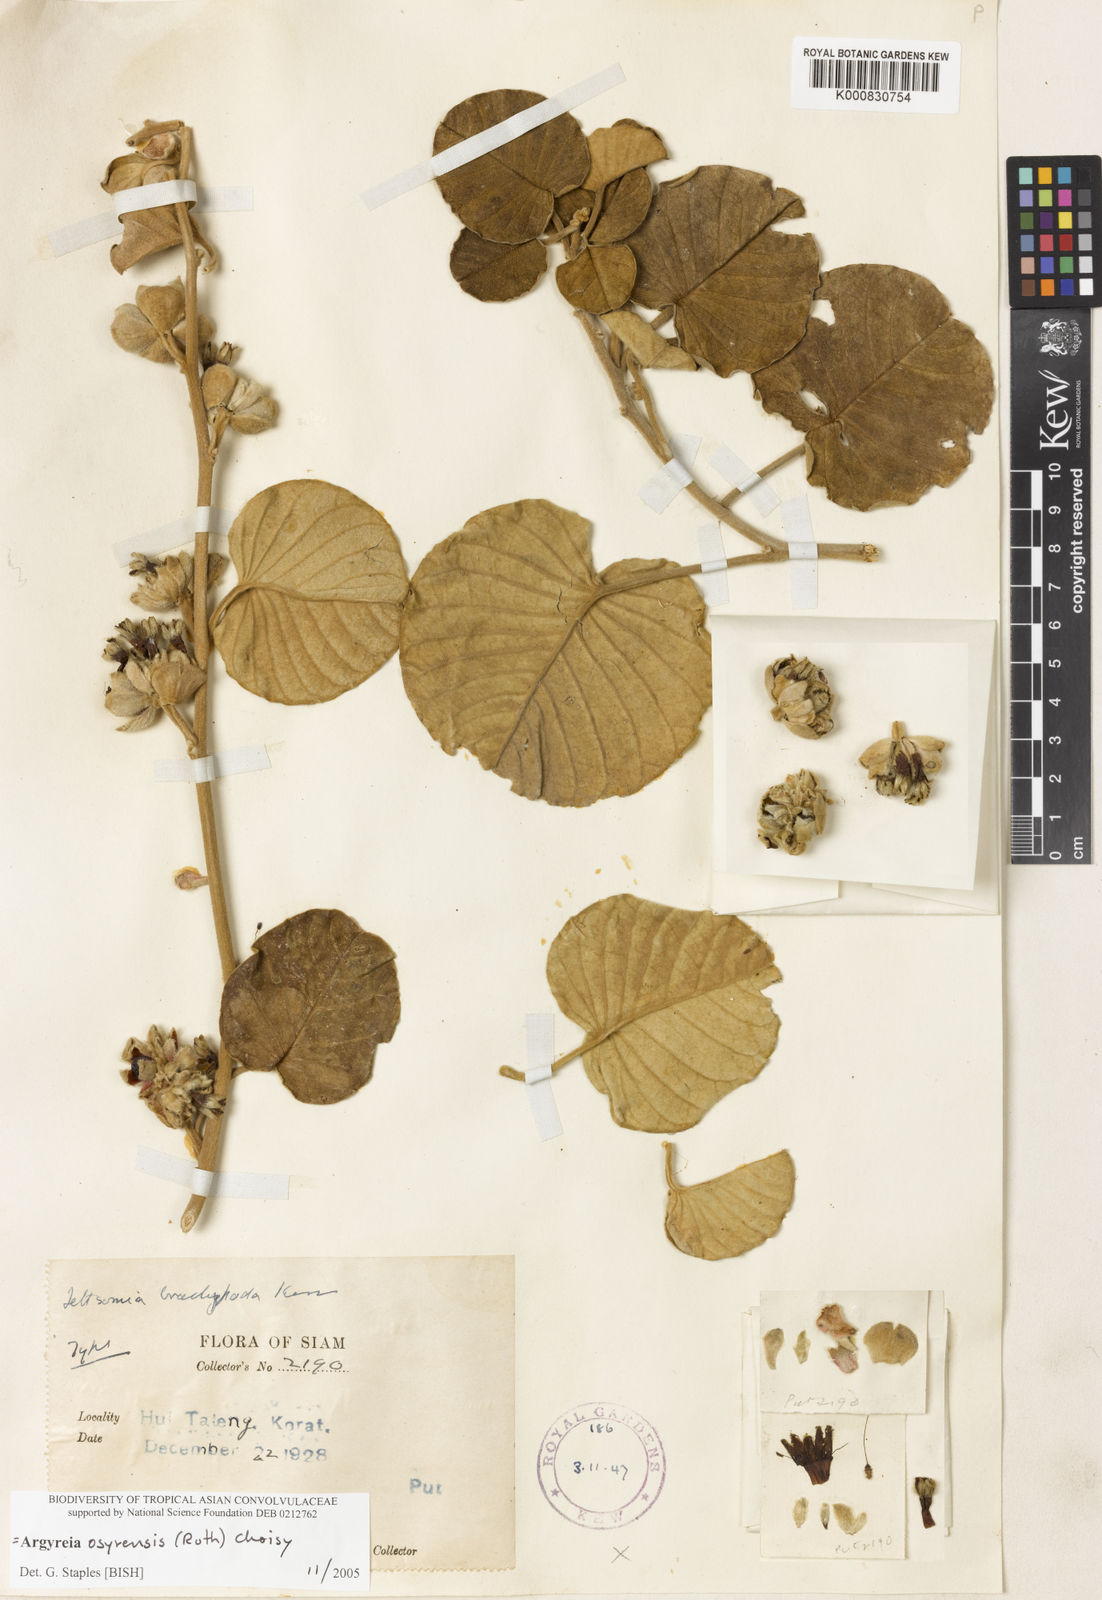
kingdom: Plantae
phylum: Tracheophyta
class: Magnoliopsida
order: Solanales
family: Convolvulaceae
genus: Argyreia
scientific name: Argyreia osyrensis
